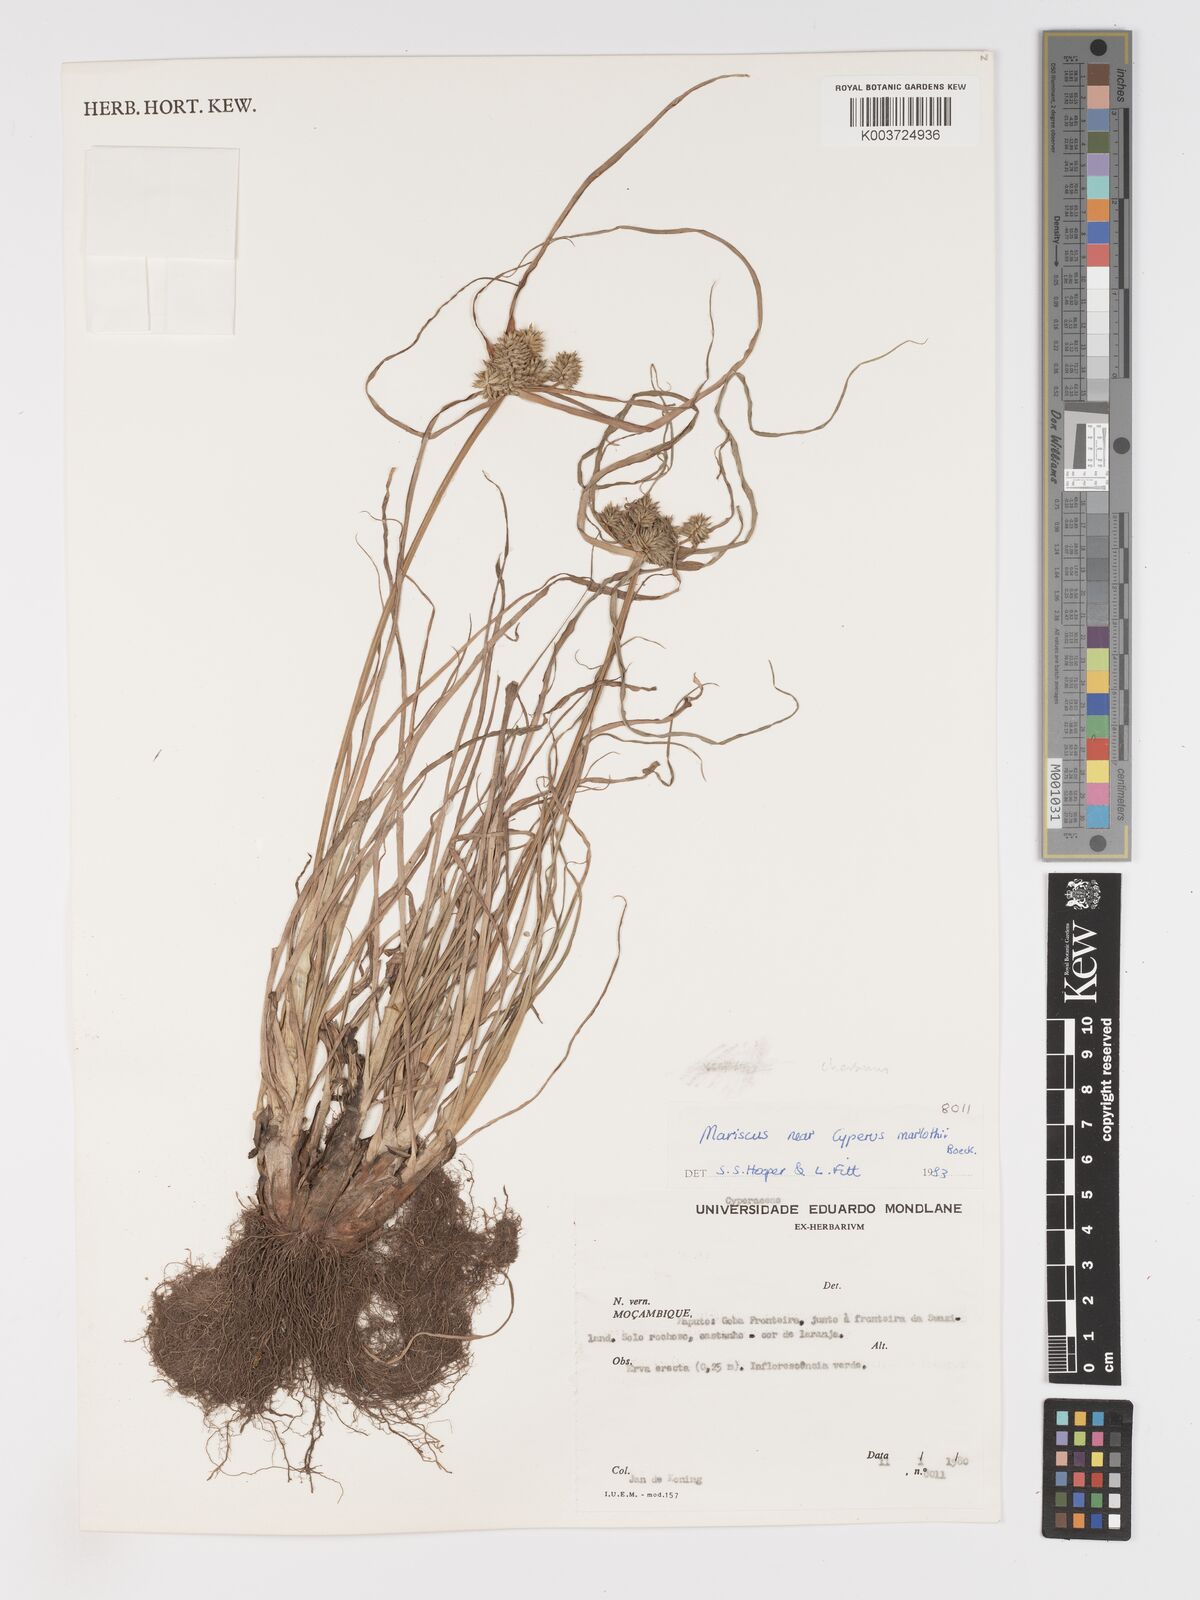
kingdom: Plantae
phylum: Tracheophyta
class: Liliopsida
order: Poales
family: Cyperaceae
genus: Cyperus
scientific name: Cyperus marlothii
